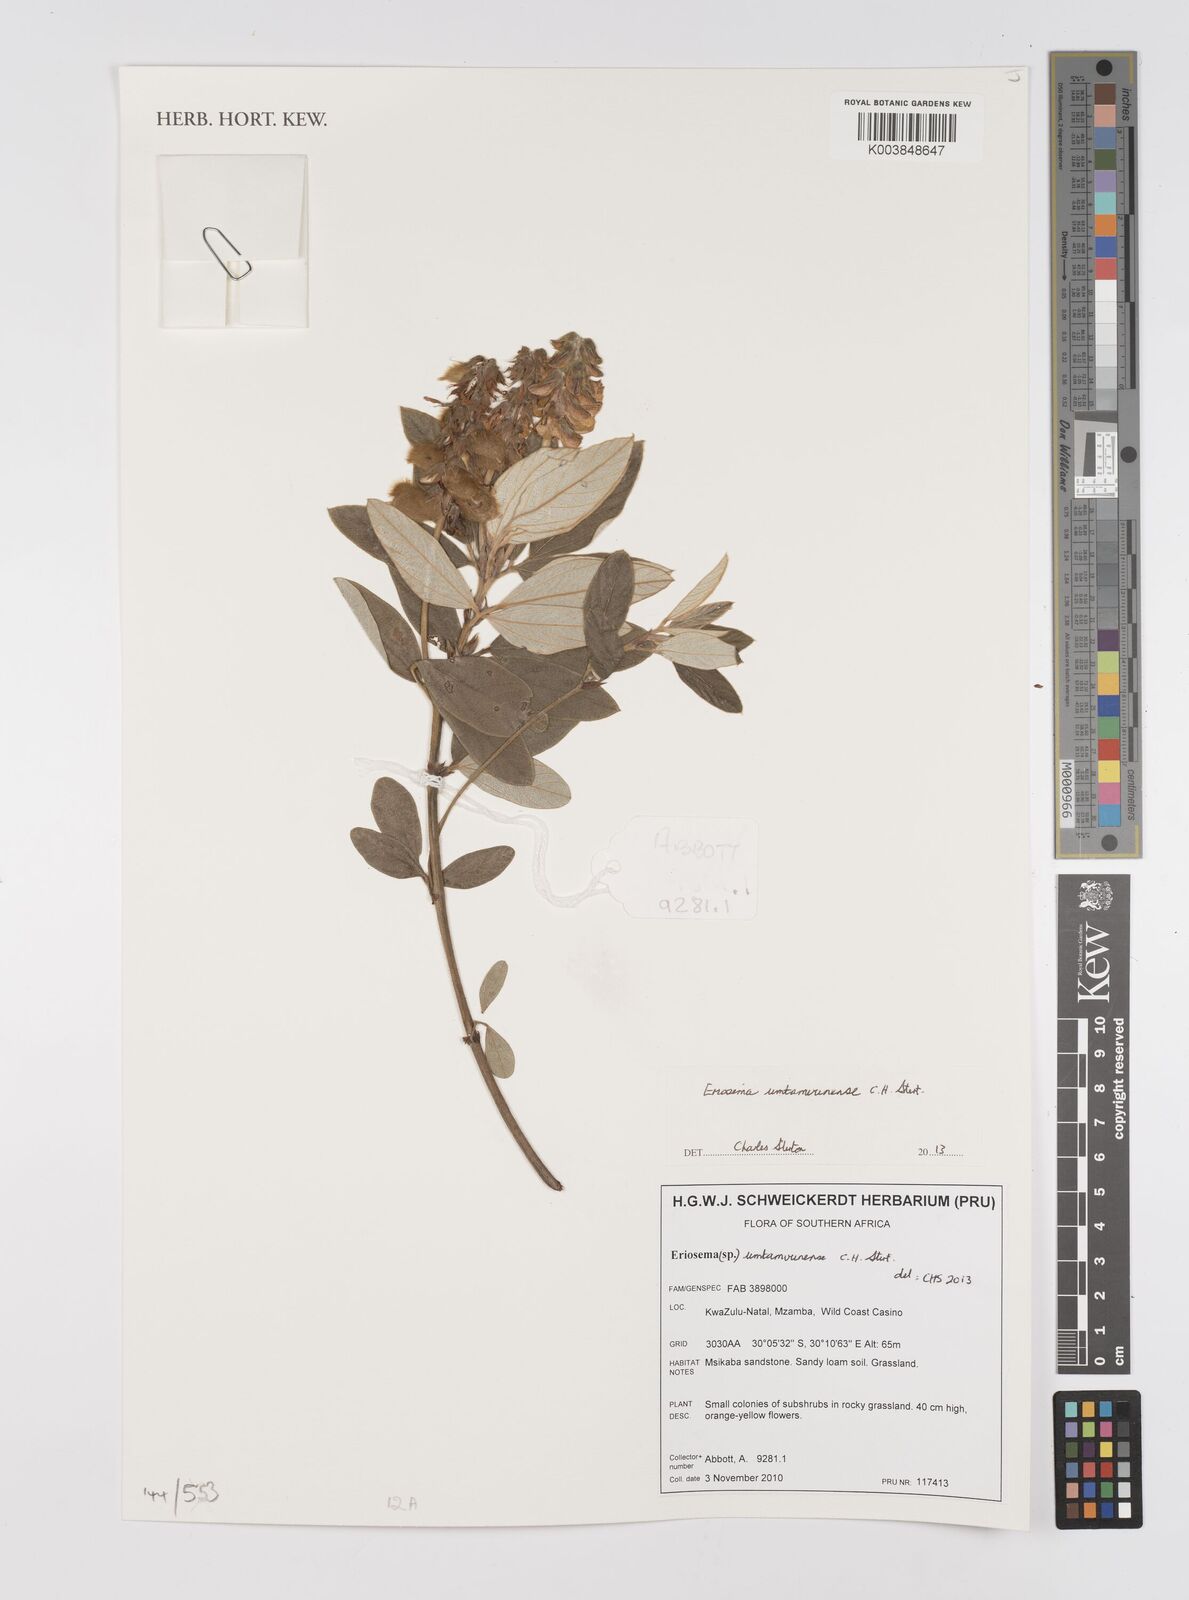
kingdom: Plantae
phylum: Tracheophyta
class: Magnoliopsida
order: Fabales
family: Fabaceae
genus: Eriosema
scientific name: Eriosema umtamvunense
